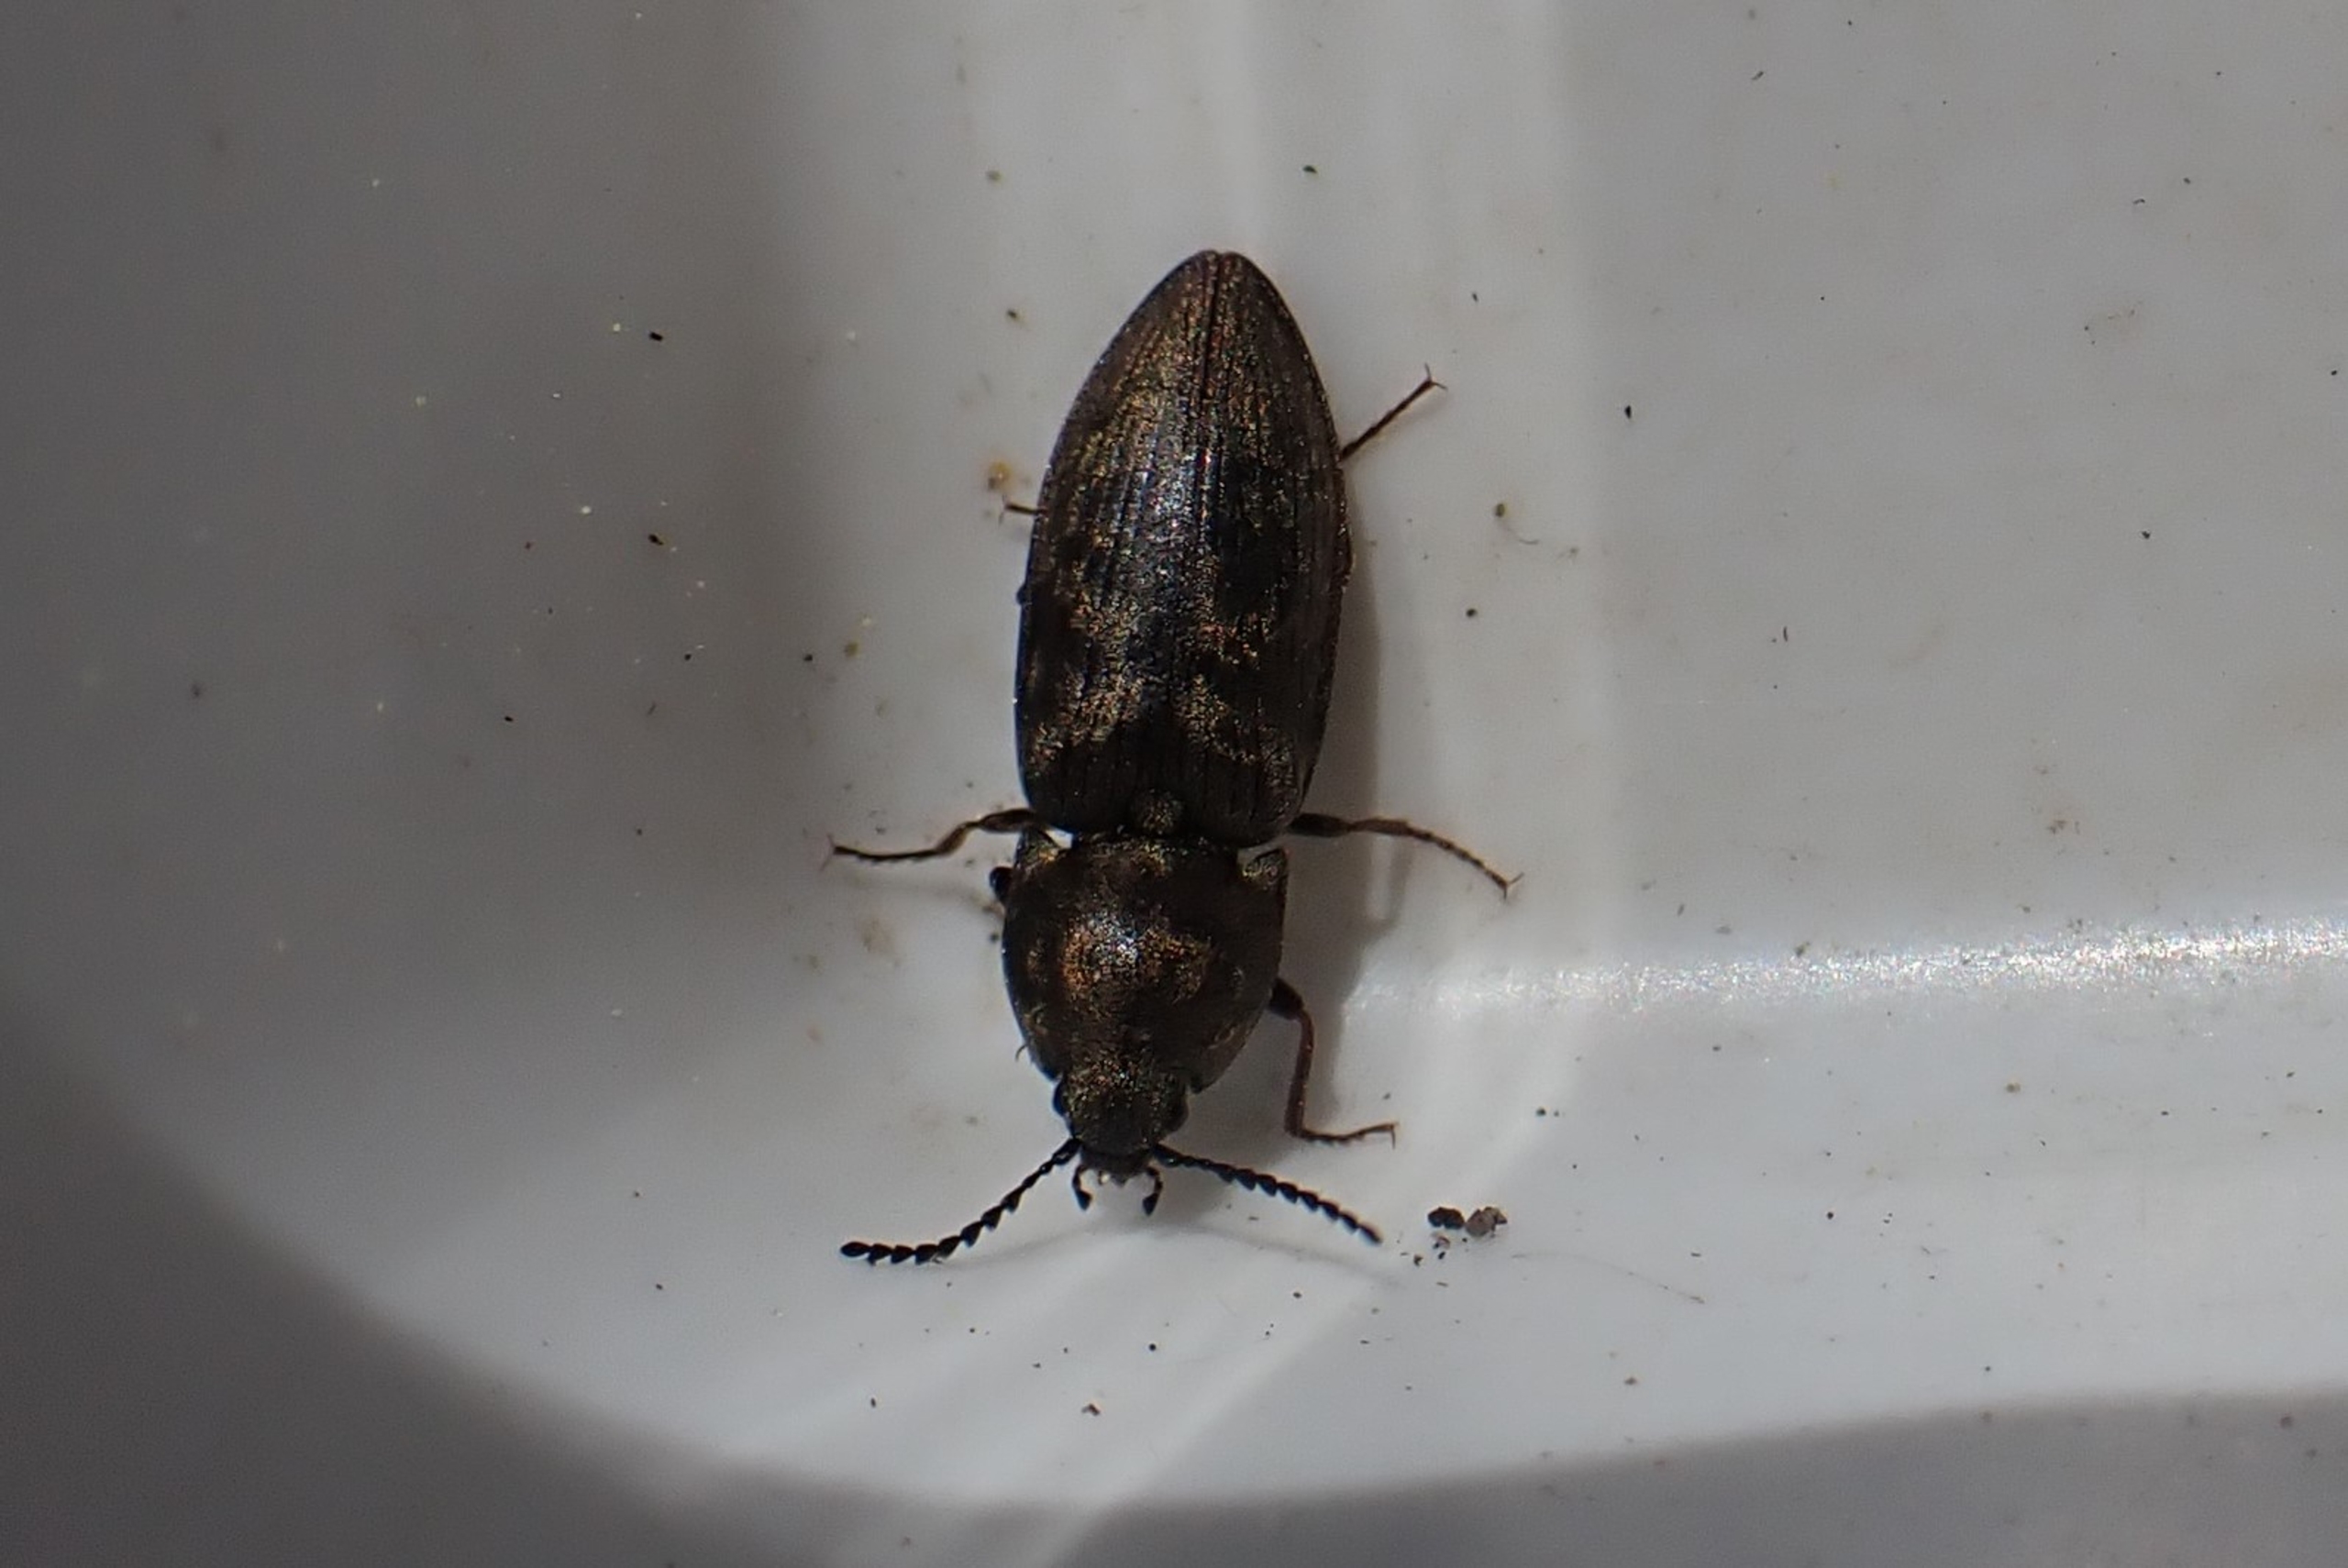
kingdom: Animalia
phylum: Arthropoda
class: Insecta
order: Coleoptera
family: Elateridae
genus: Prosternon
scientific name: Prosternon tessellatum
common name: Silkeglinsende jordsmælder
